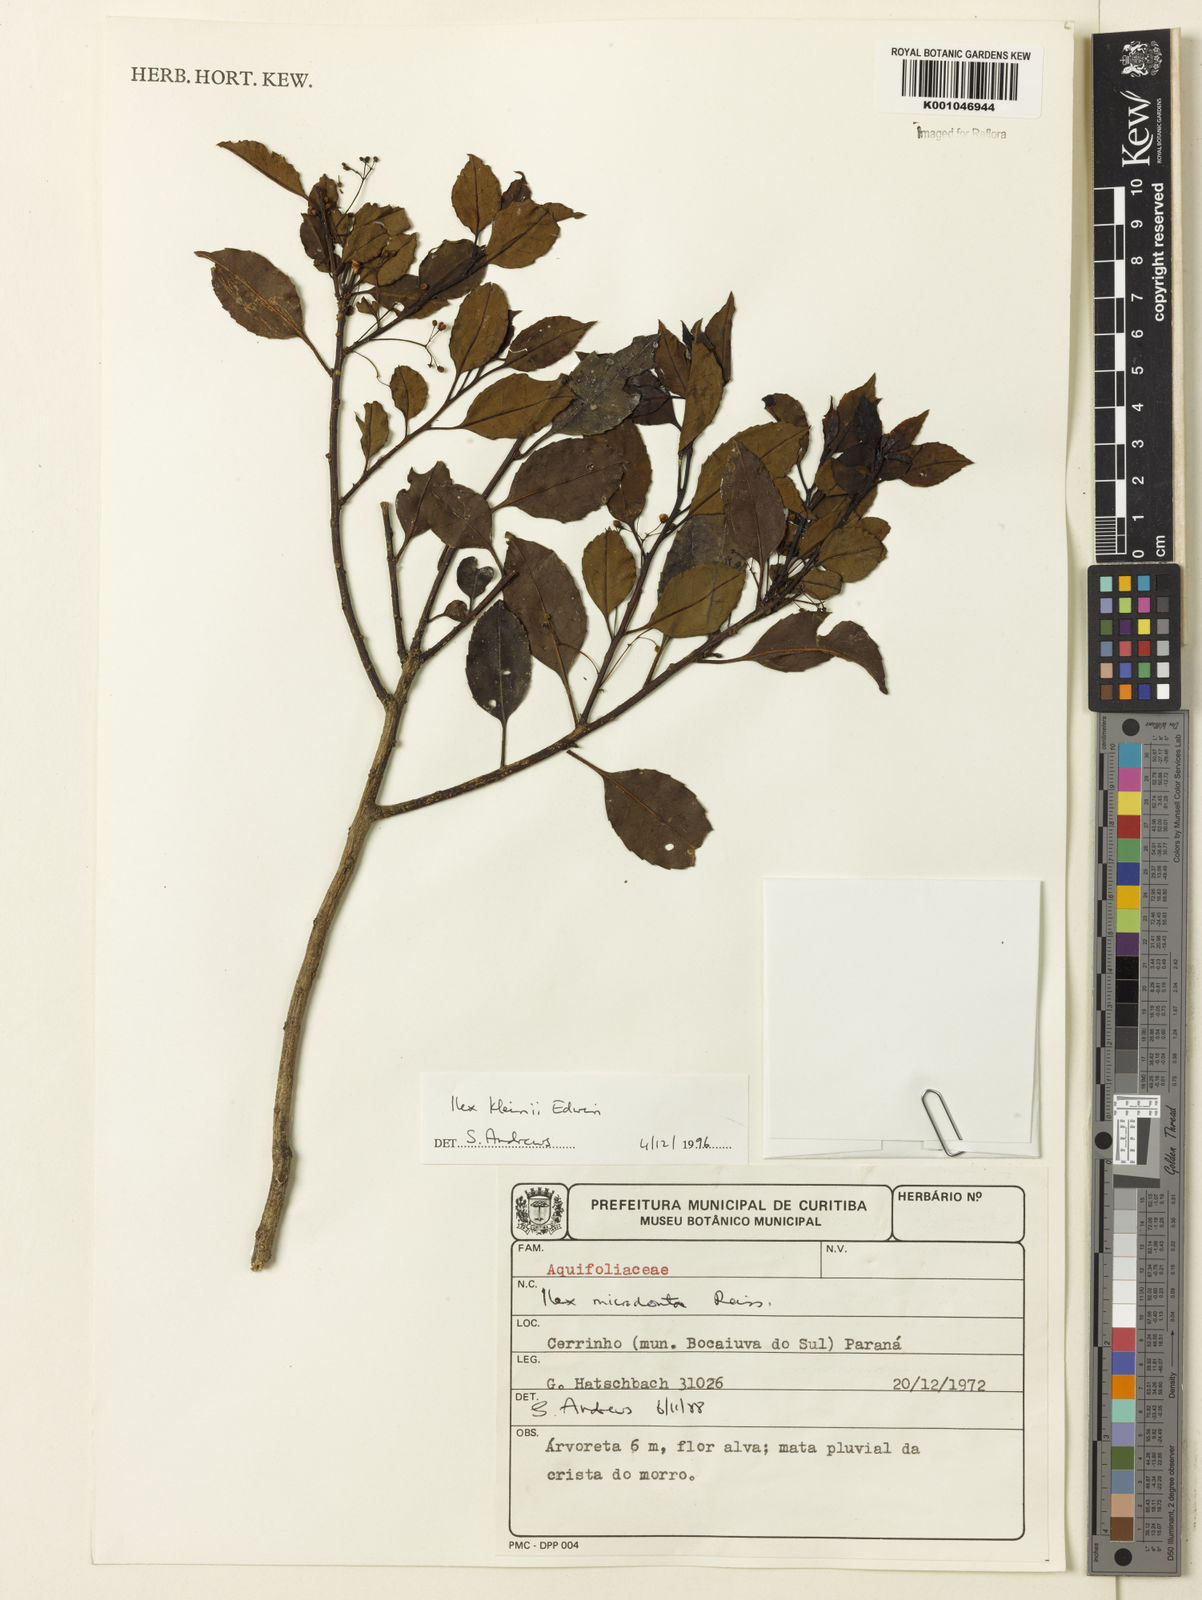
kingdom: Plantae
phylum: Tracheophyta
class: Magnoliopsida
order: Aquifoliales
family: Aquifoliaceae
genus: Ilex
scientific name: Ilex taubertiana
